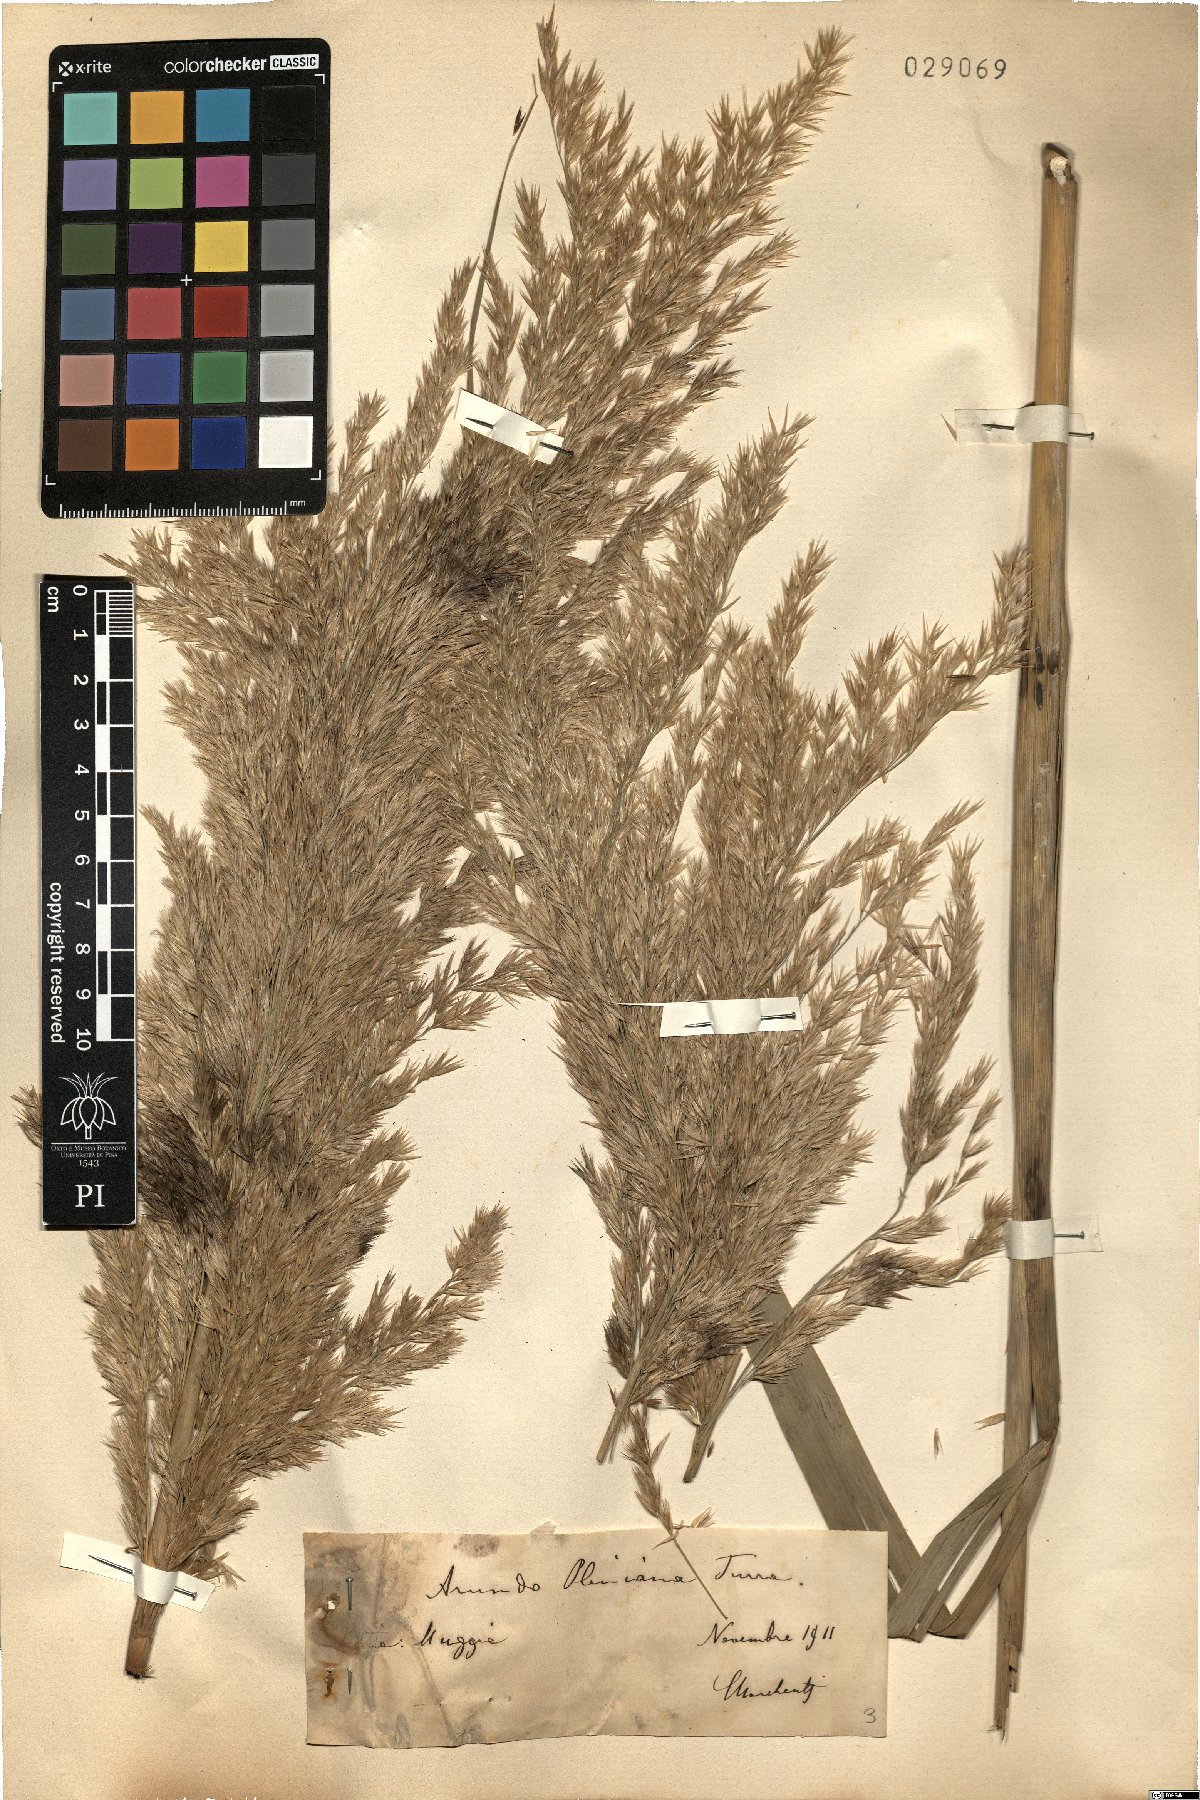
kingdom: Plantae
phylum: Tracheophyta
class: Liliopsida
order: Poales
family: Poaceae
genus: Arundo
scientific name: Arundo plinii
